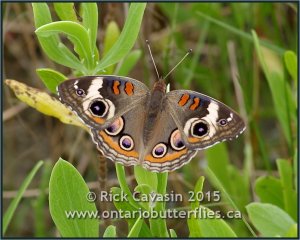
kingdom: Animalia
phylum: Arthropoda
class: Insecta
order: Lepidoptera
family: Nymphalidae
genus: Junonia
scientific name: Junonia coenia
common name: Common Buckeye
